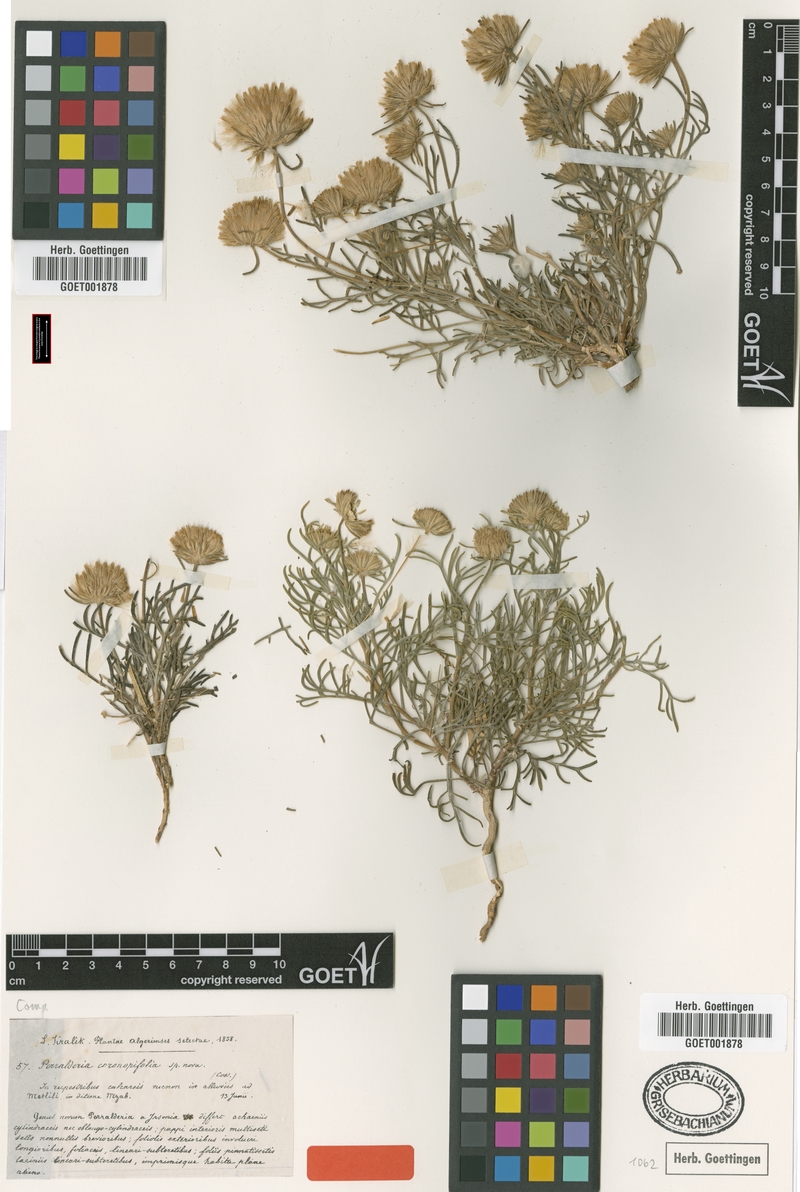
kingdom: Plantae
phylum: Tracheophyta
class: Magnoliopsida
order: Asterales
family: Asteraceae
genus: Perralderia
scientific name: Perralderia coronopifolia
